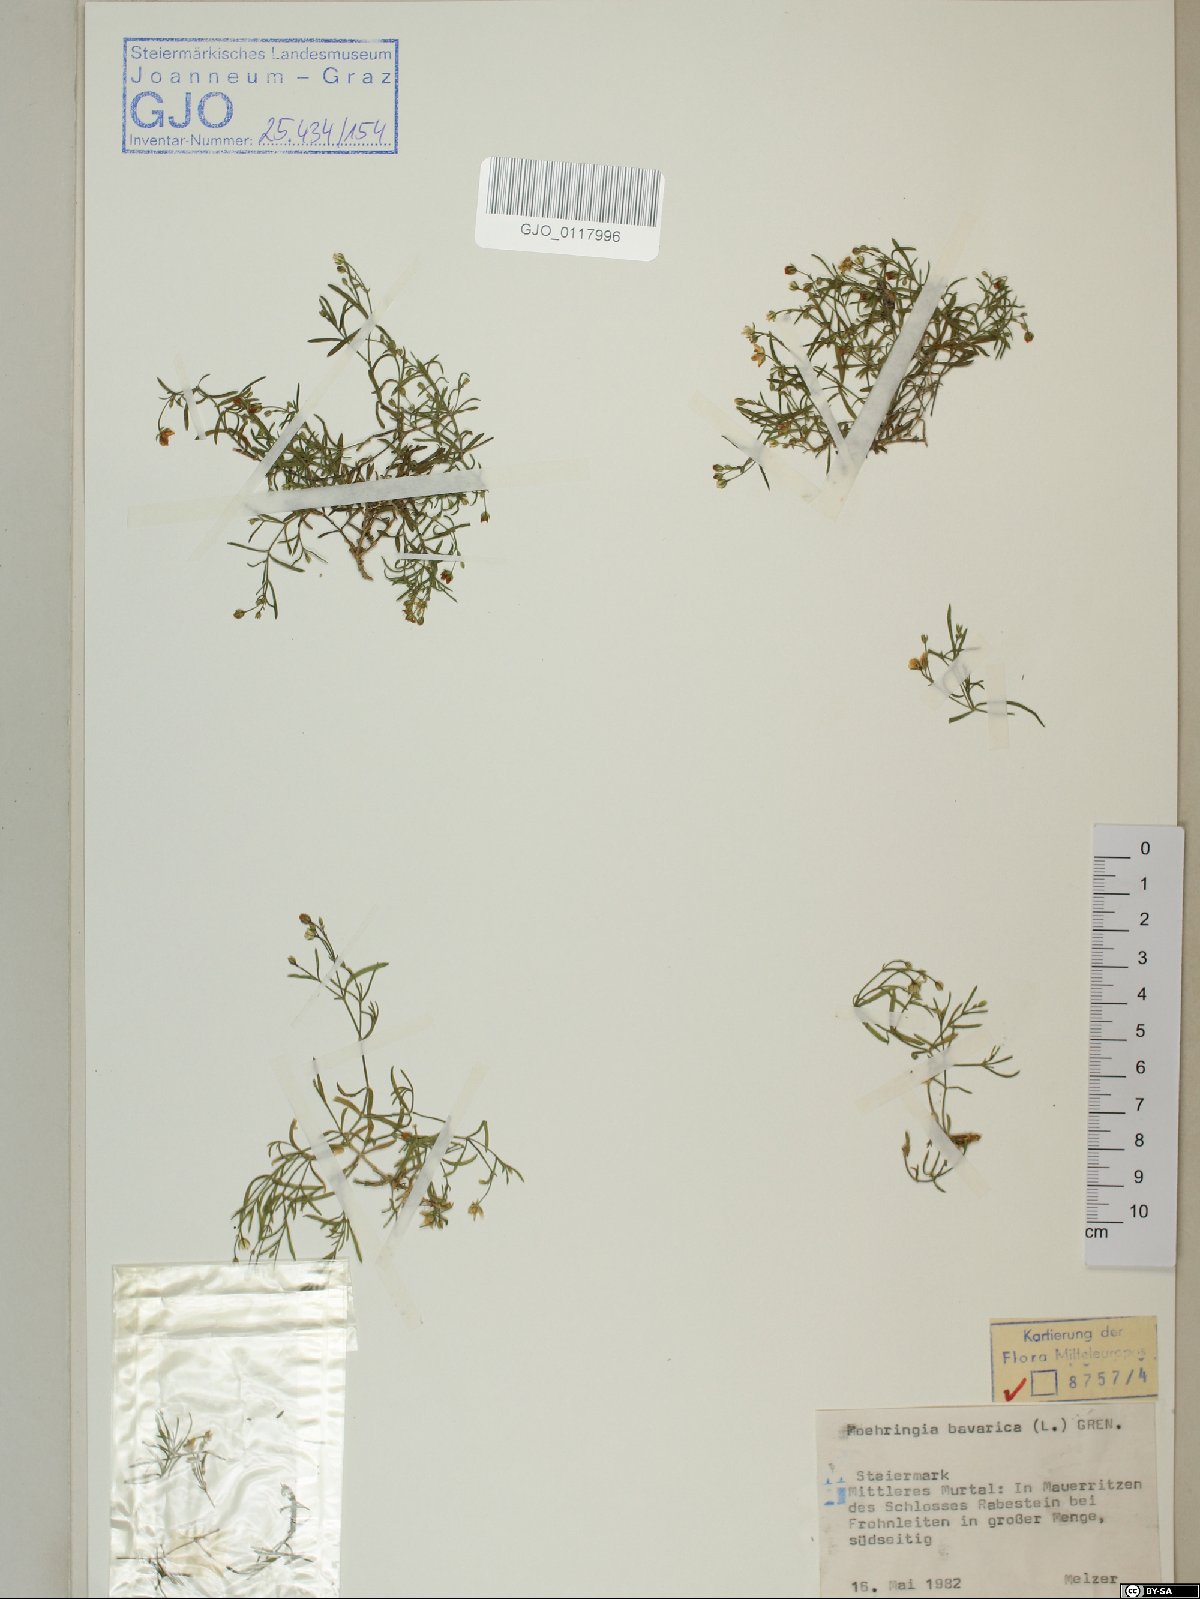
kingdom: Plantae
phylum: Tracheophyta
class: Magnoliopsida
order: Caryophyllales
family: Caryophyllaceae
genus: Moehringia
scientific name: Moehringia bavarica
